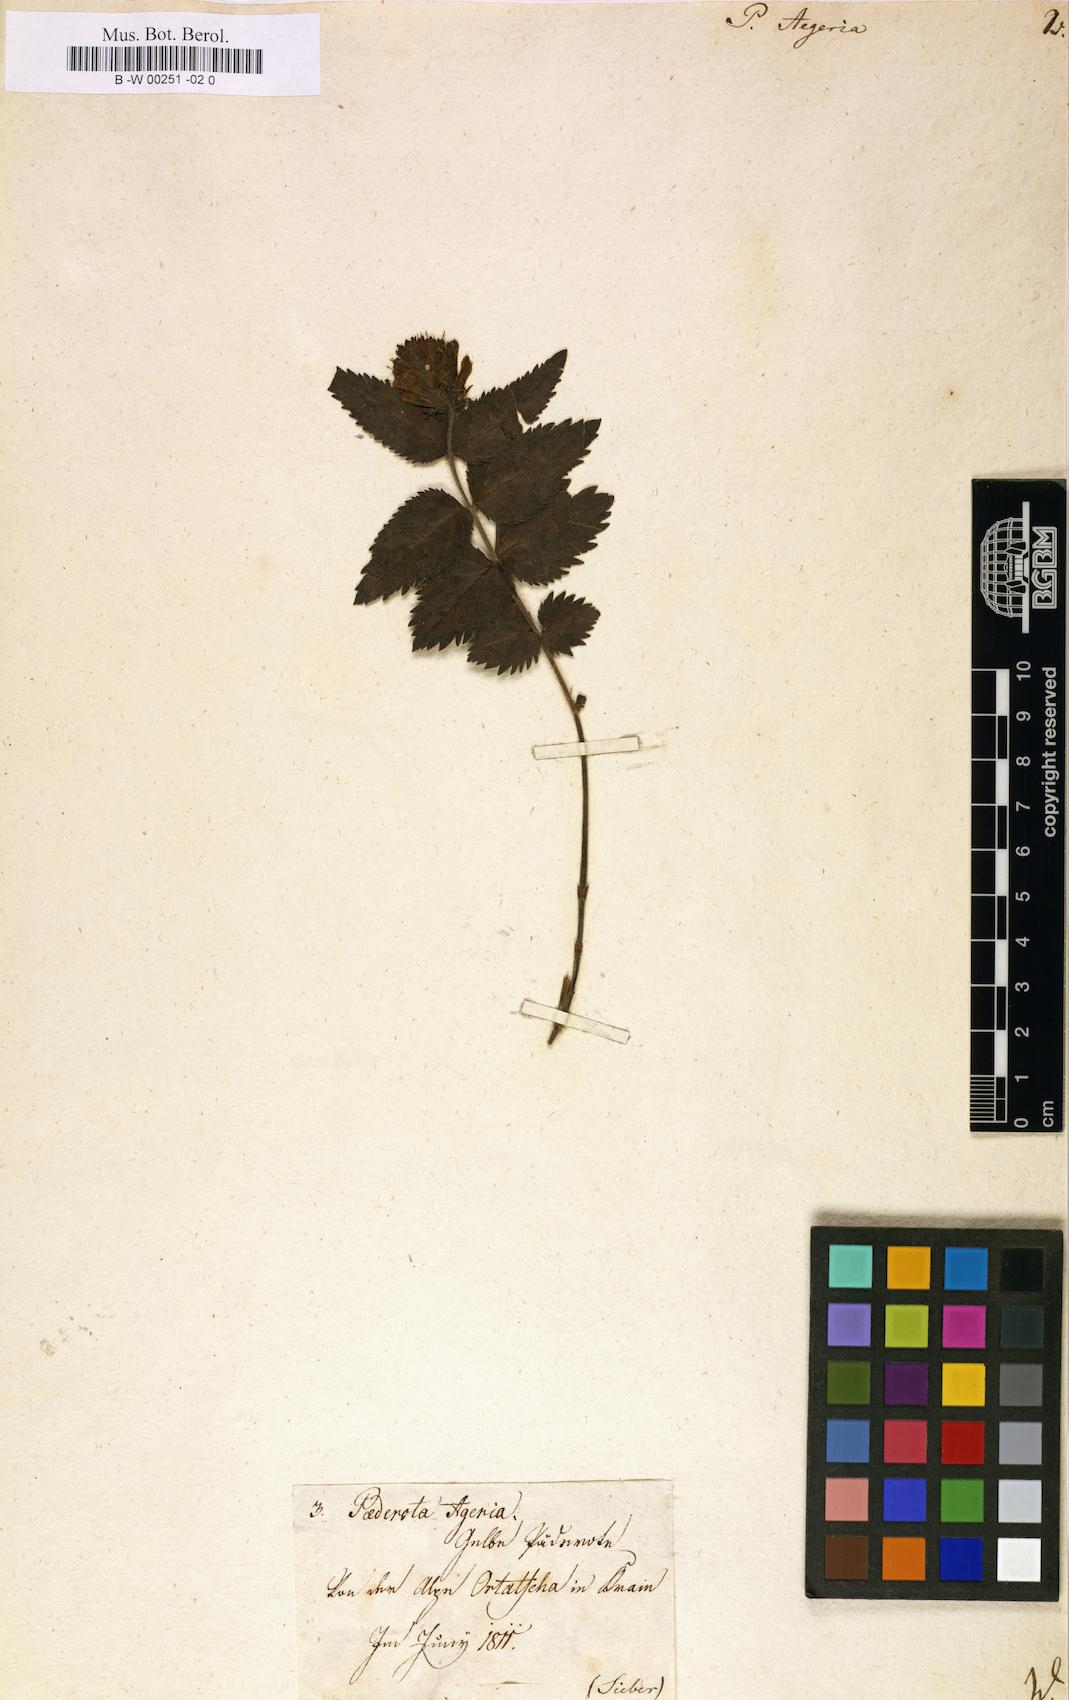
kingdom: Plantae
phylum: Tracheophyta
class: Magnoliopsida
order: Lamiales
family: Plantaginaceae
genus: Paederota
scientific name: Paederota
